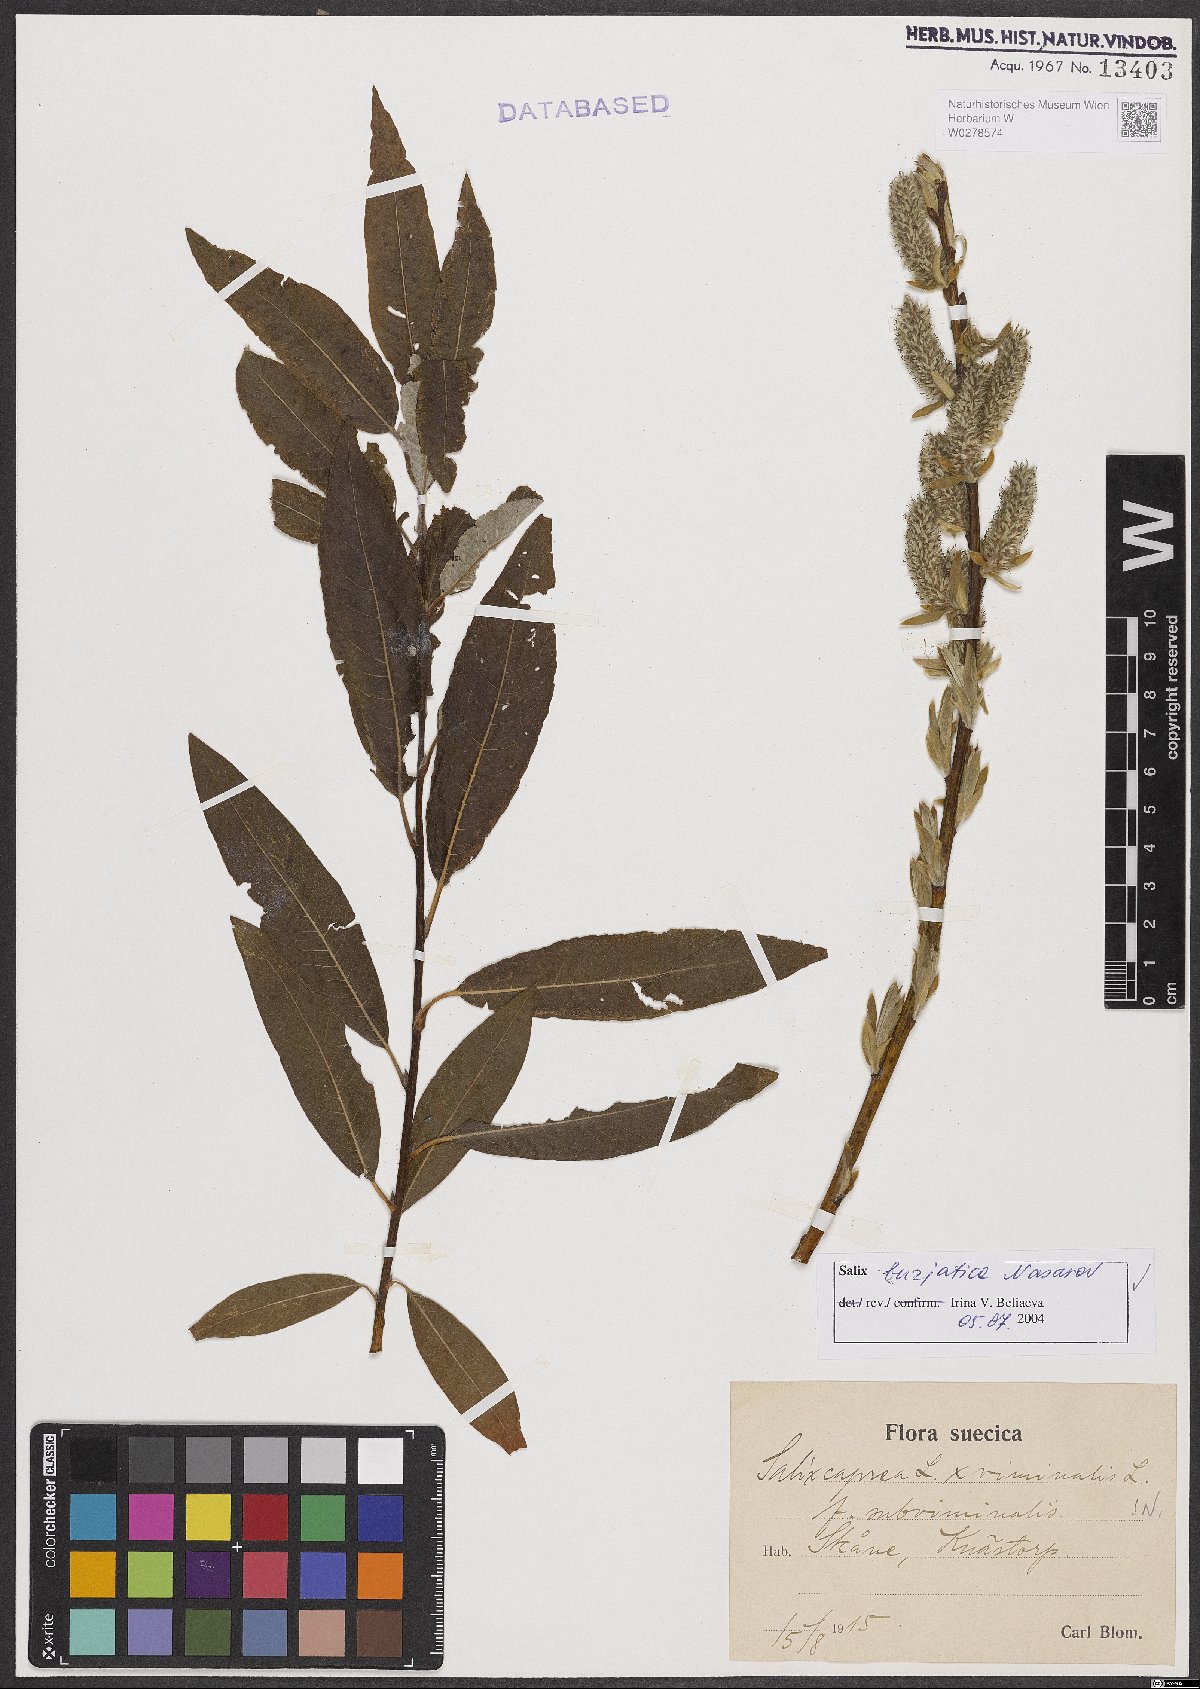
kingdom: Plantae
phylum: Tracheophyta
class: Magnoliopsida
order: Malpighiales
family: Salicaceae
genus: Salix
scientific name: Salix gmelinii
